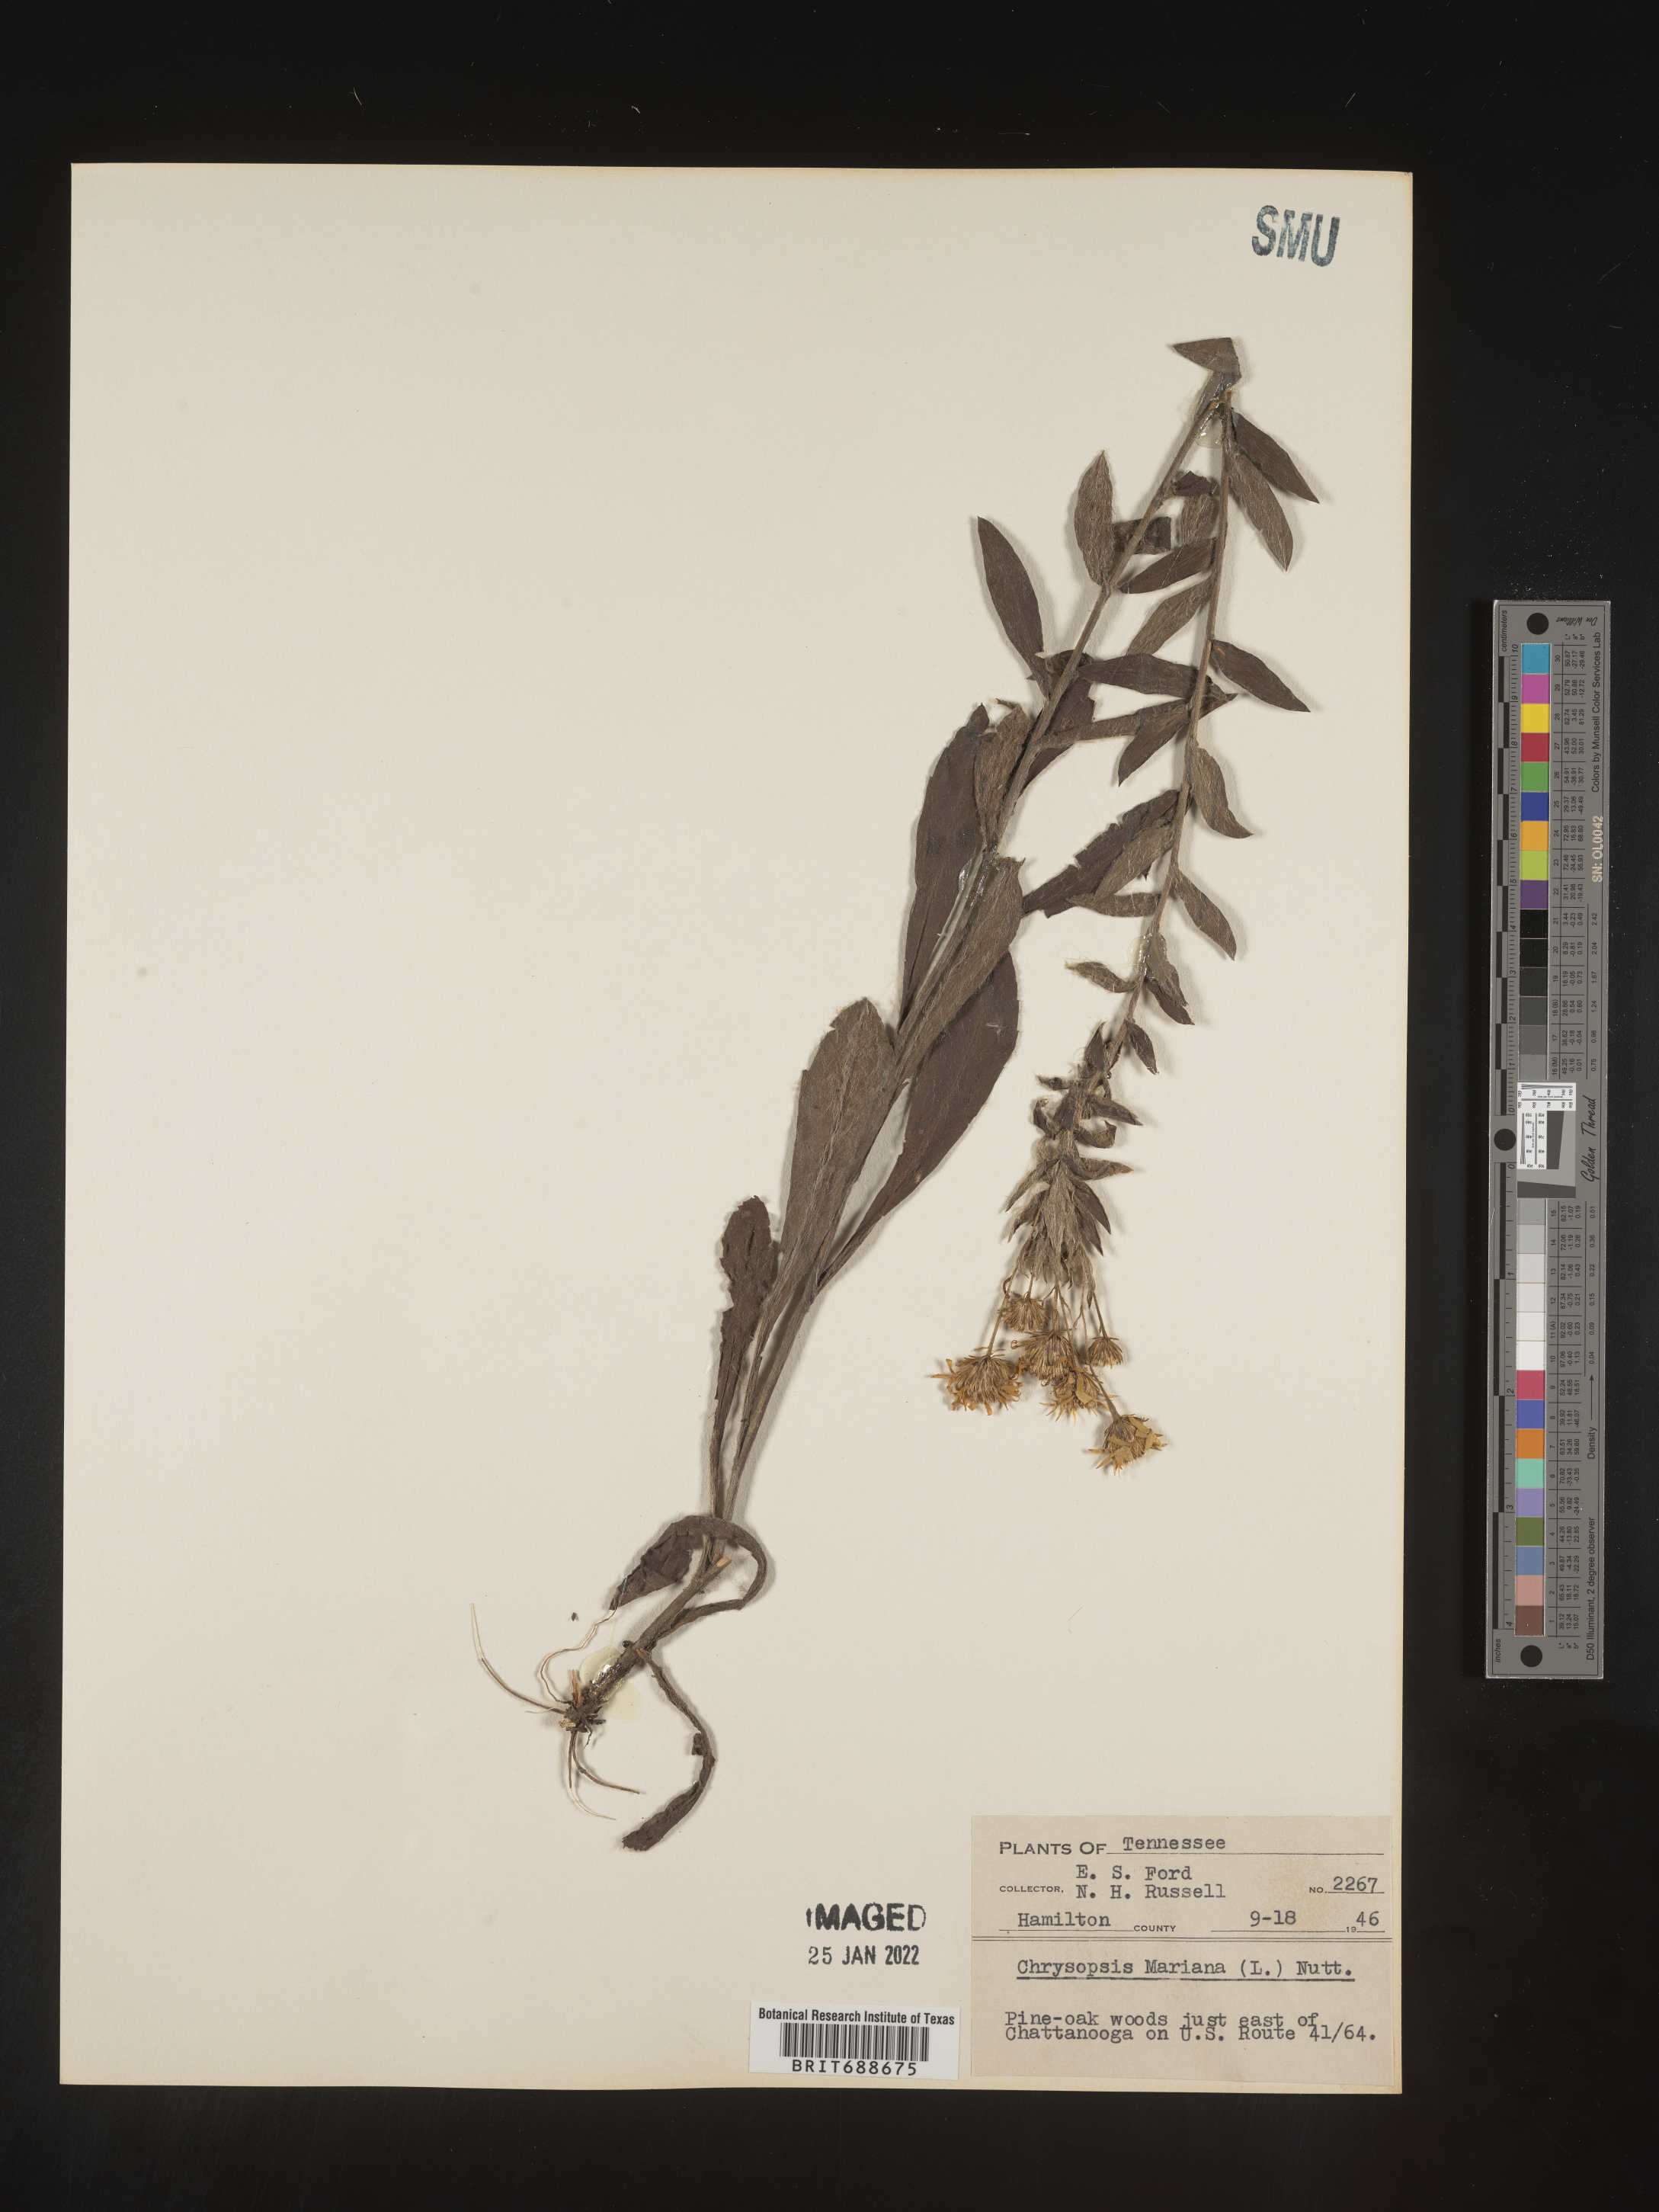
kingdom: Plantae
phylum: Tracheophyta
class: Magnoliopsida
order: Asterales
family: Asteraceae
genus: Chrysopsis
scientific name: Chrysopsis mariana
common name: Maryland golden-aster
